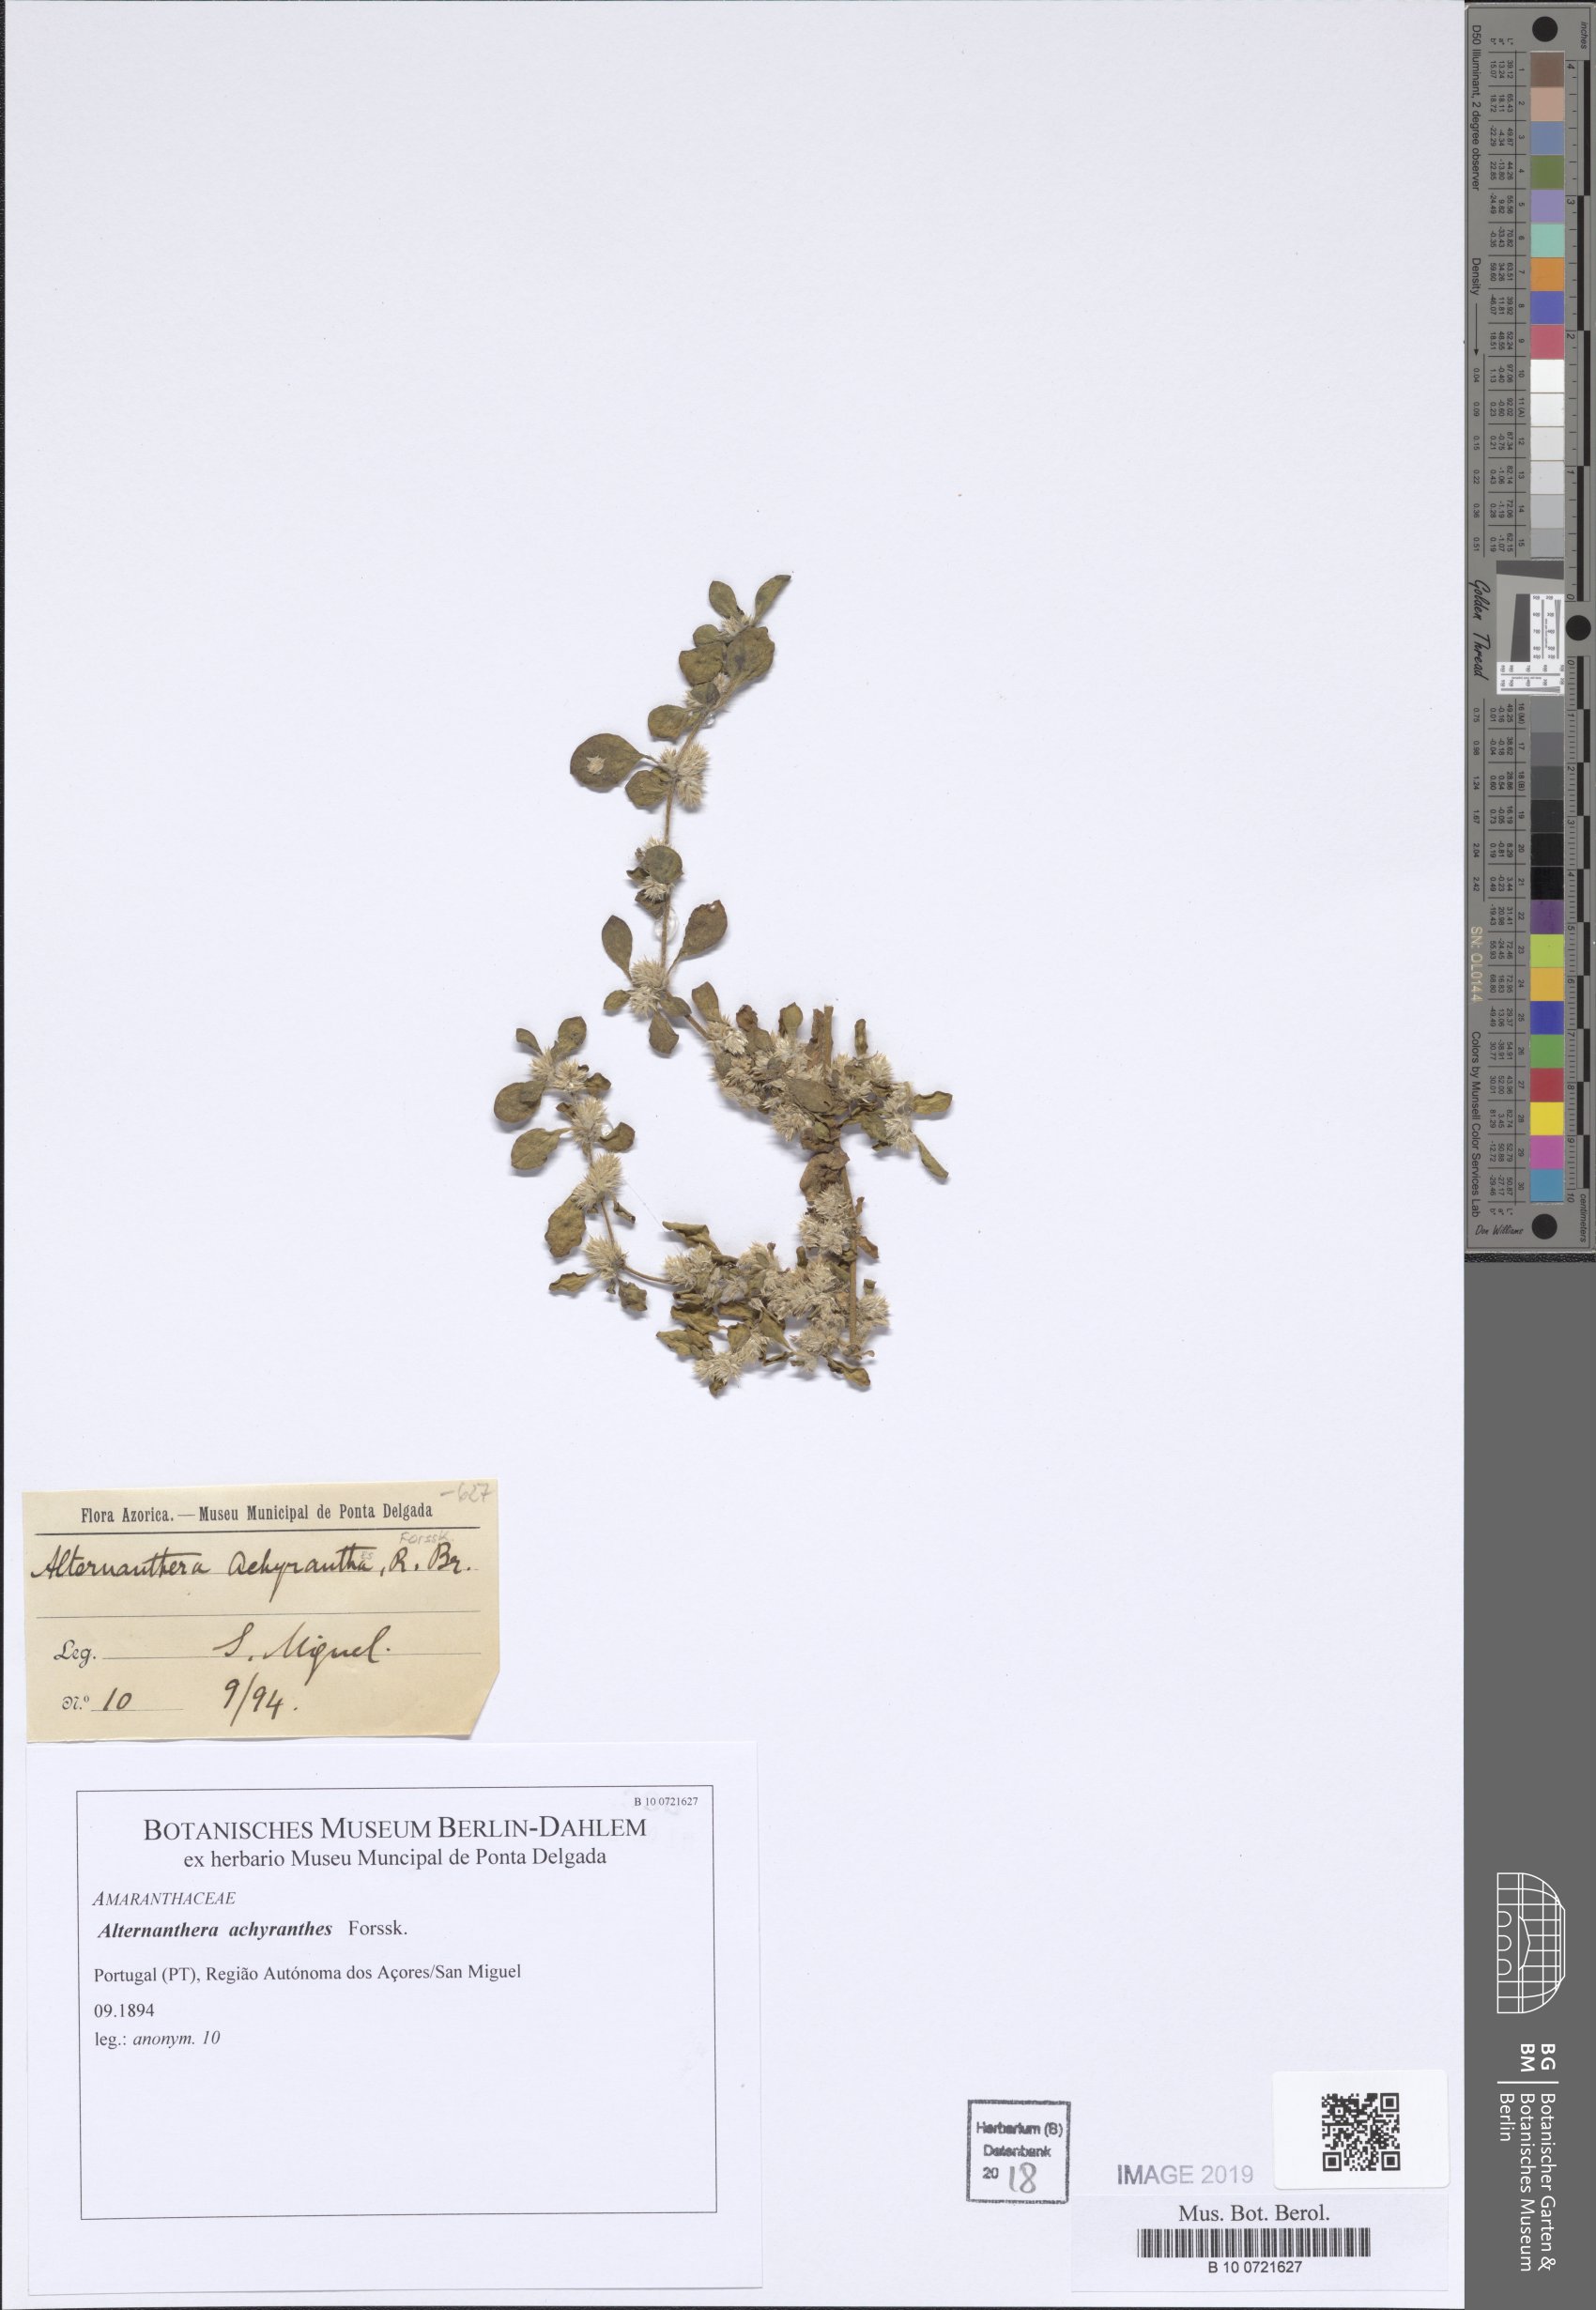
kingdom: Plantae
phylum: Tracheophyta
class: Magnoliopsida
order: Caryophyllales
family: Amaranthaceae
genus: Alternanthera
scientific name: Alternanthera sessilis
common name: Sessile joyweed
